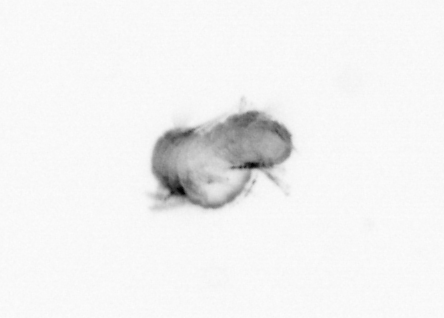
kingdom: Animalia
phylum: Annelida
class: Polychaeta
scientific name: Polychaeta
